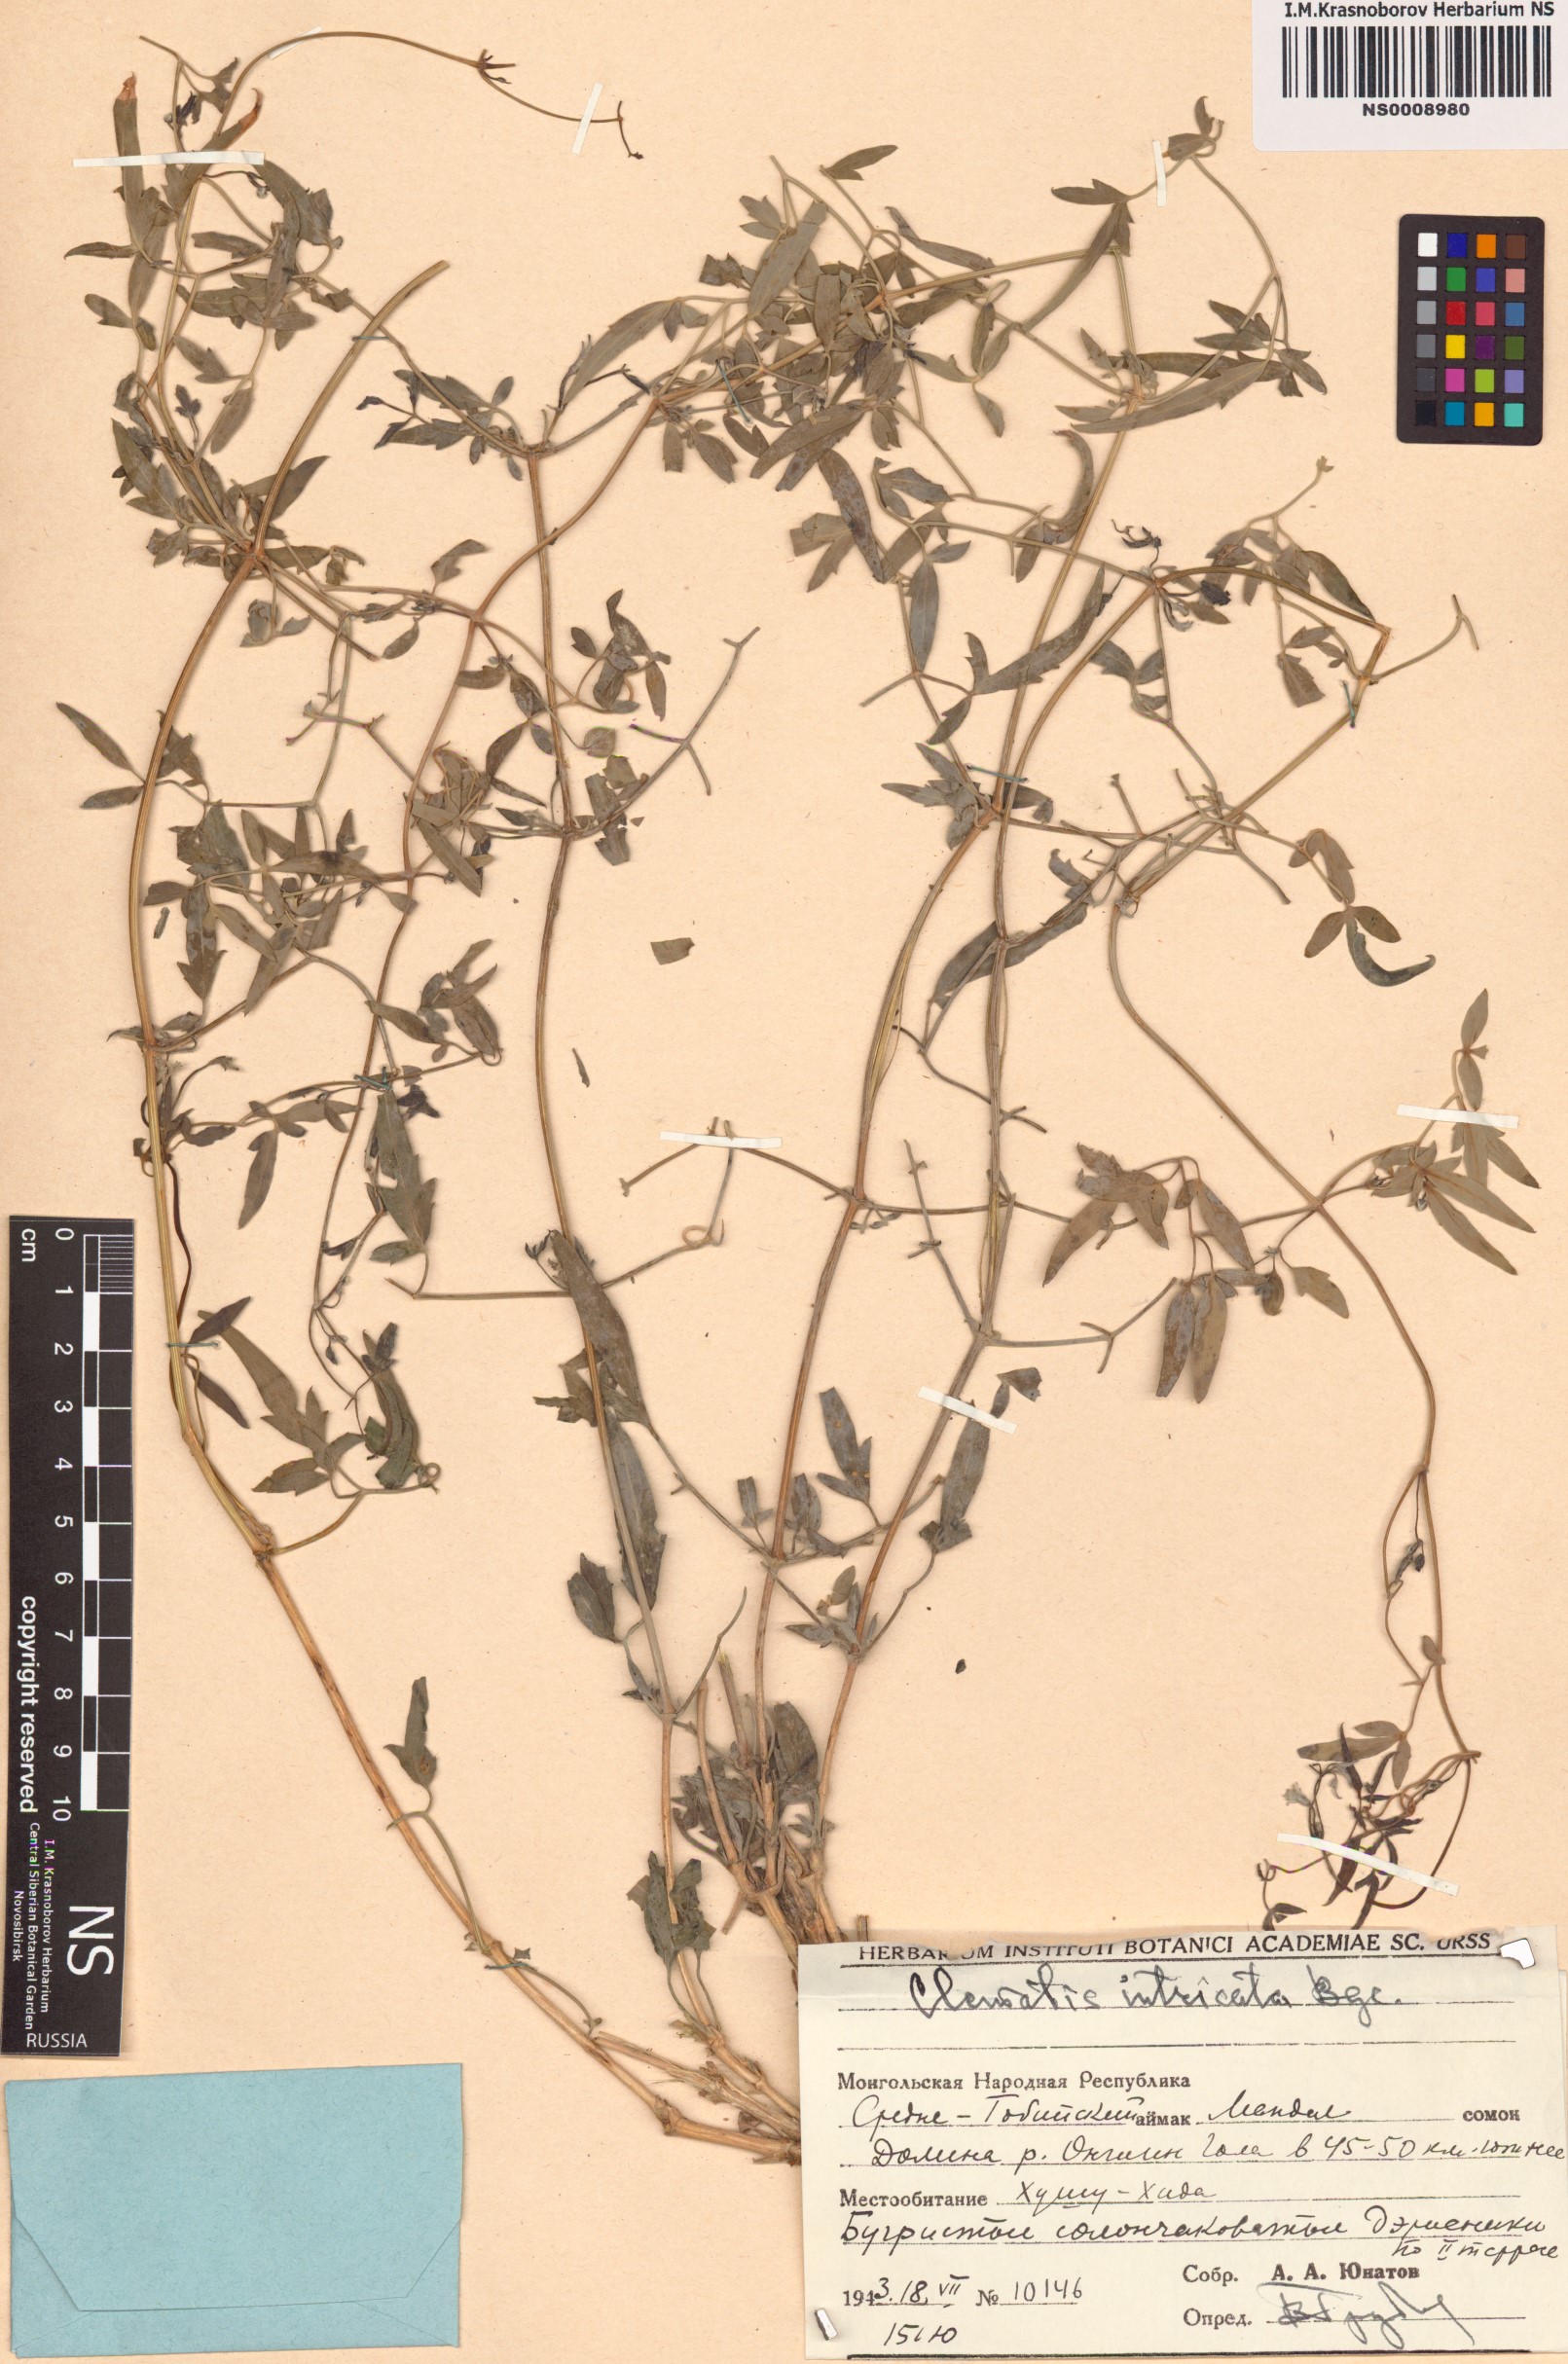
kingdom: Plantae
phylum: Tracheophyta
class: Magnoliopsida
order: Ranunculales
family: Ranunculaceae
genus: Clematis
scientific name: Clematis intricata
